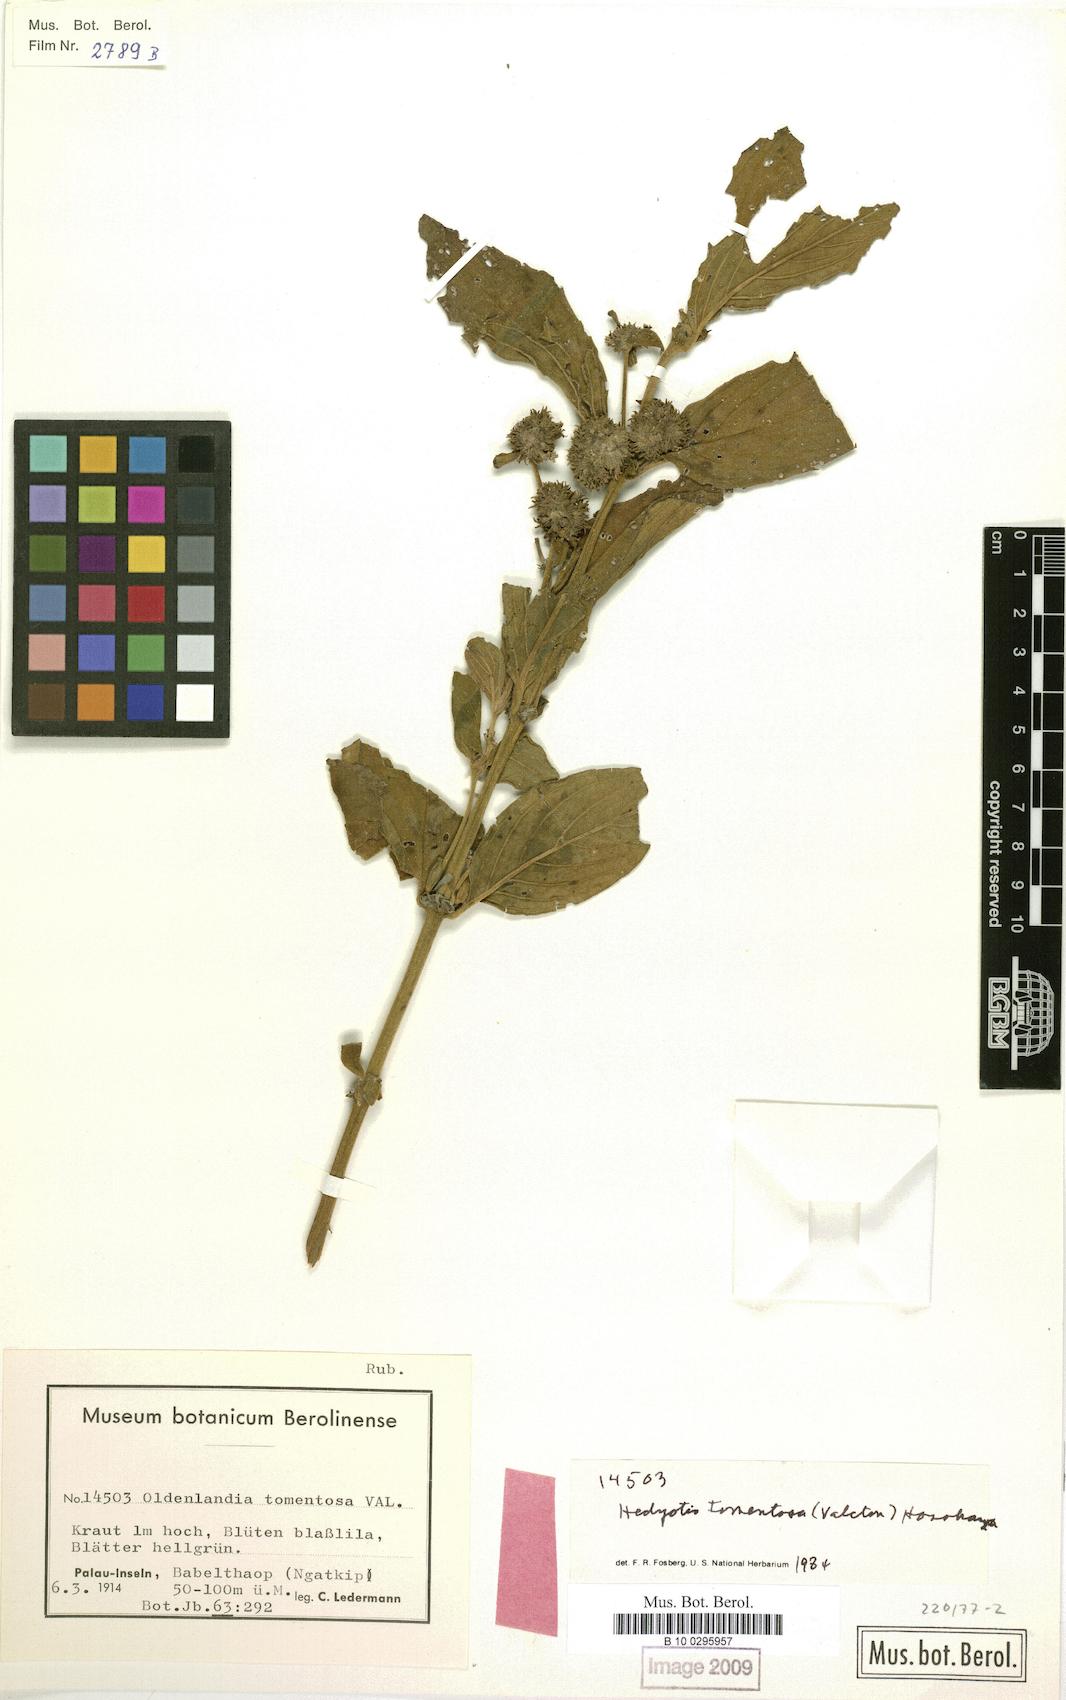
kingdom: Plantae
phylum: Tracheophyta
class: Magnoliopsida
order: Gentianales
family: Rubiaceae
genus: Hedyotis
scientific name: Hedyotis tomentosa
